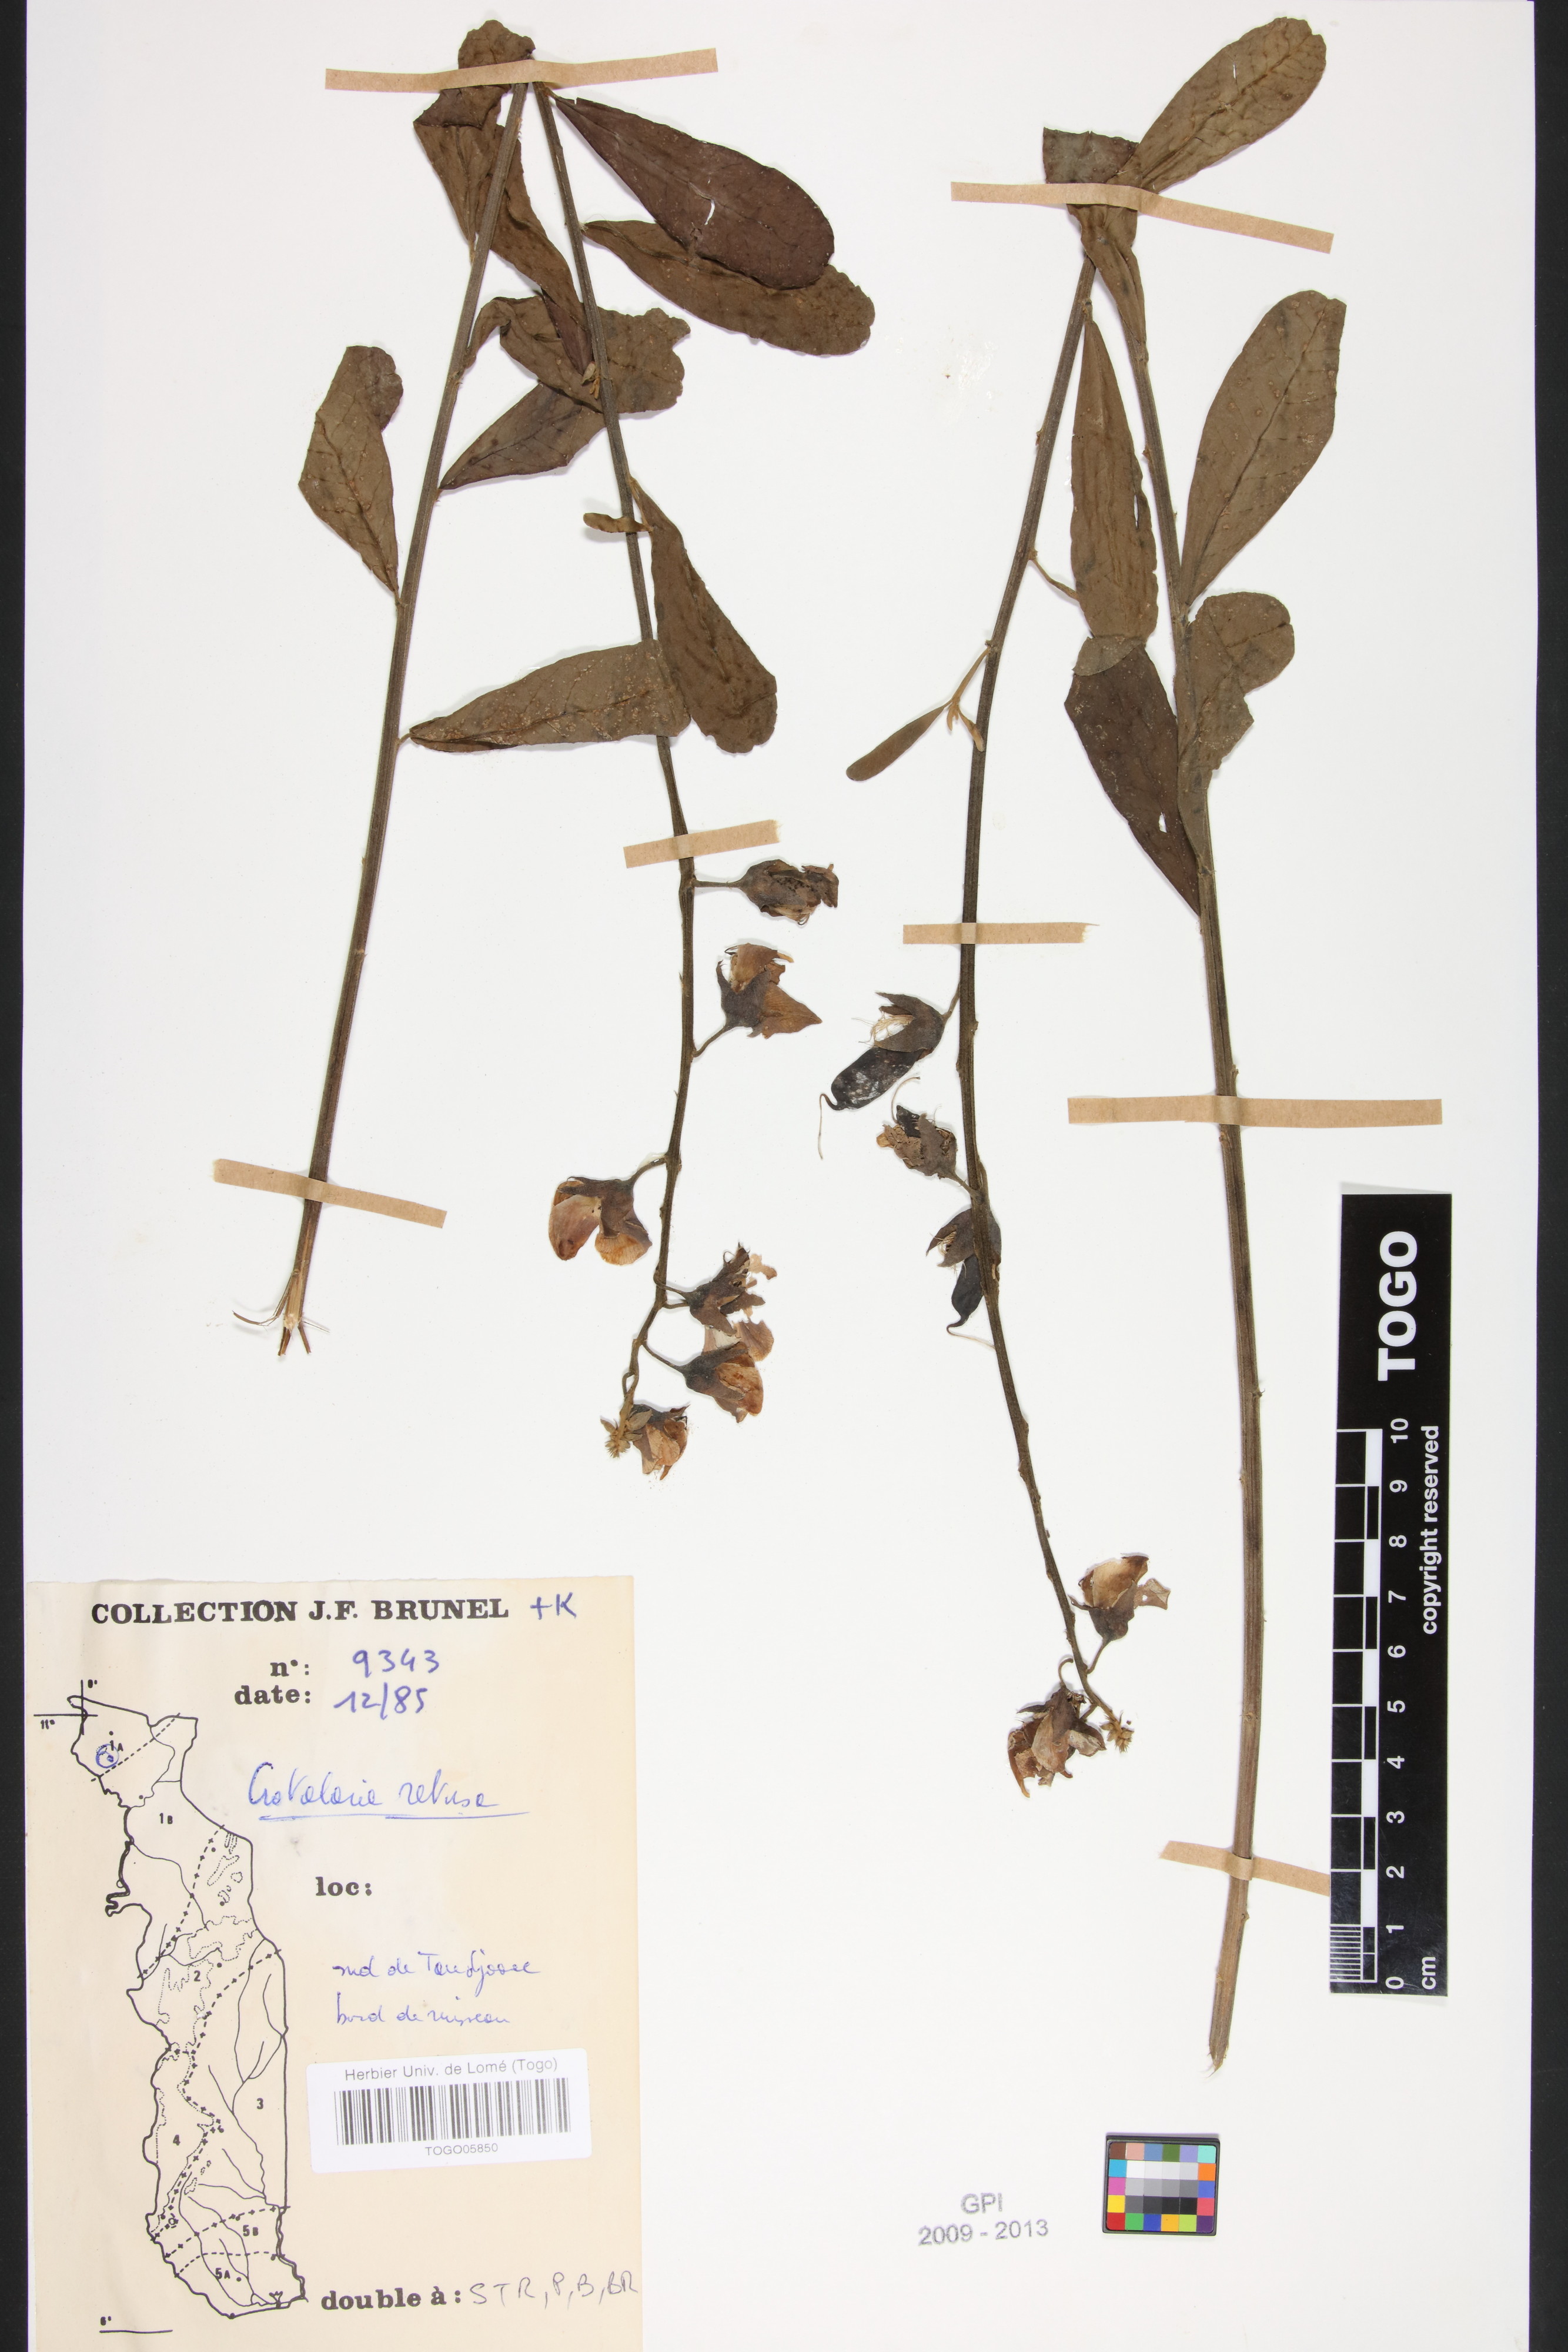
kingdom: Plantae
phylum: Tracheophyta
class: Magnoliopsida
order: Fabales
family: Fabaceae
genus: Crotalaria
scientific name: Crotalaria retusa
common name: Rattleweed
